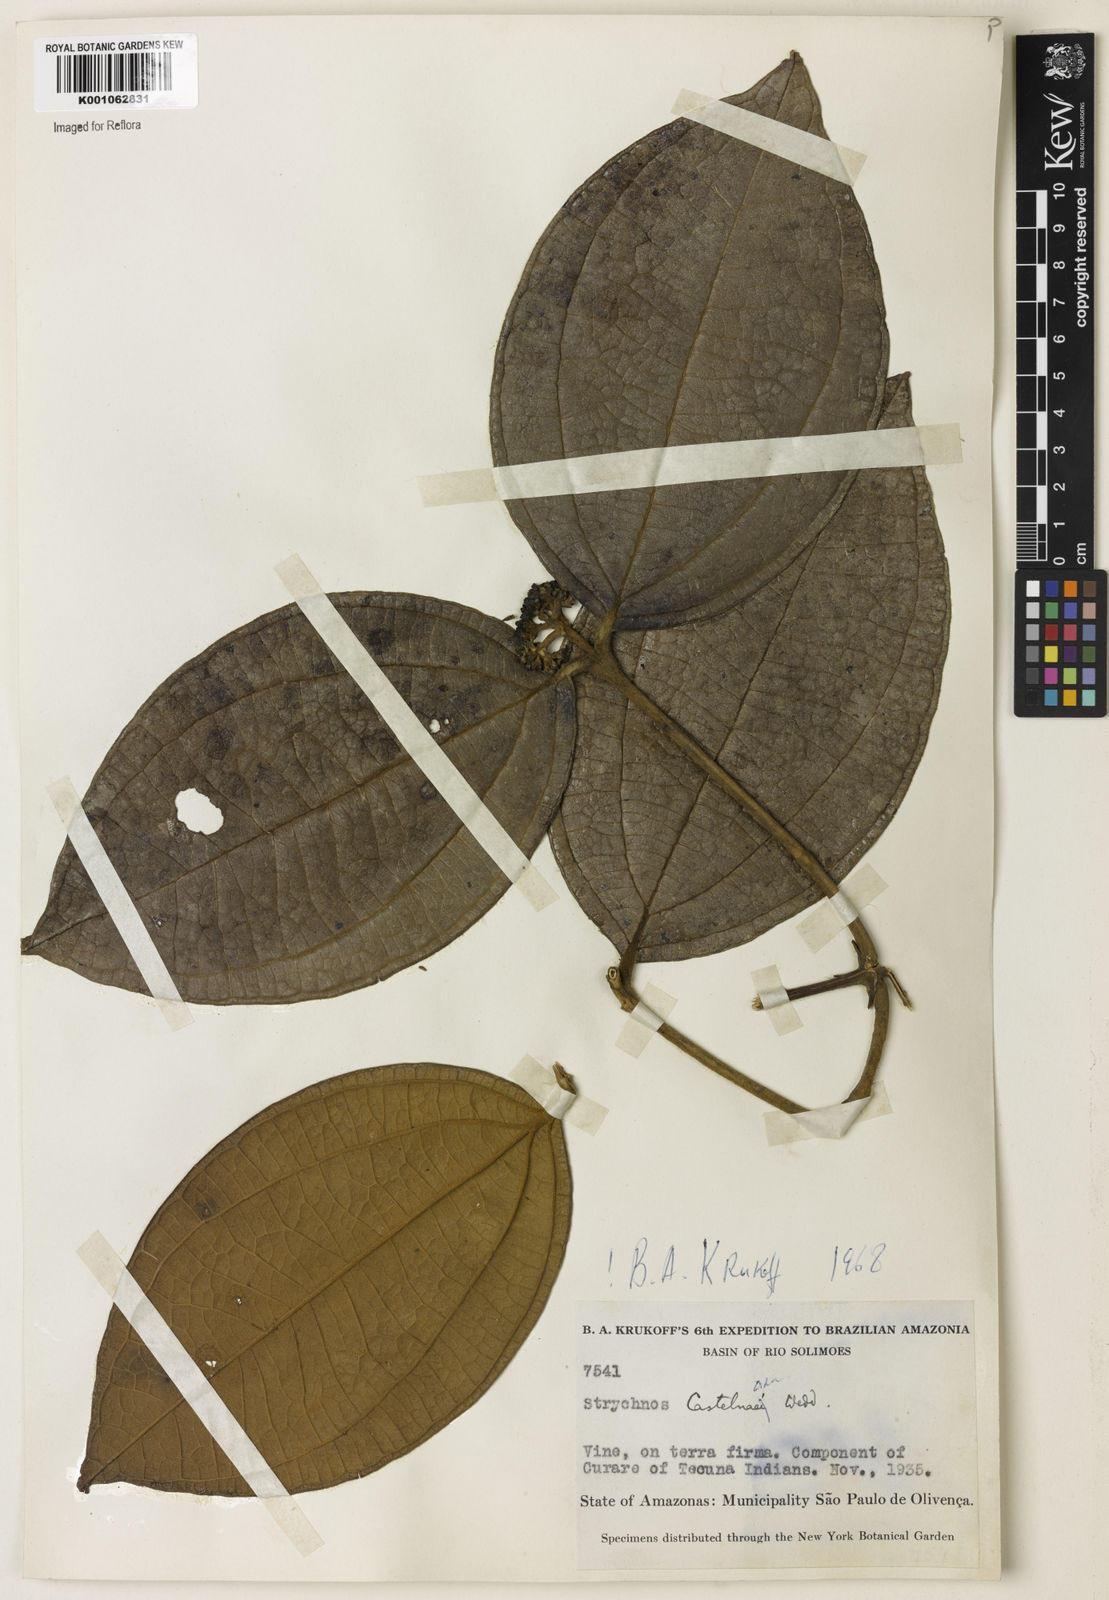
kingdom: Plantae
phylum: Tracheophyta
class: Magnoliopsida
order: Gentianales
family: Loganiaceae
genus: Strychnos
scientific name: Strychnos
